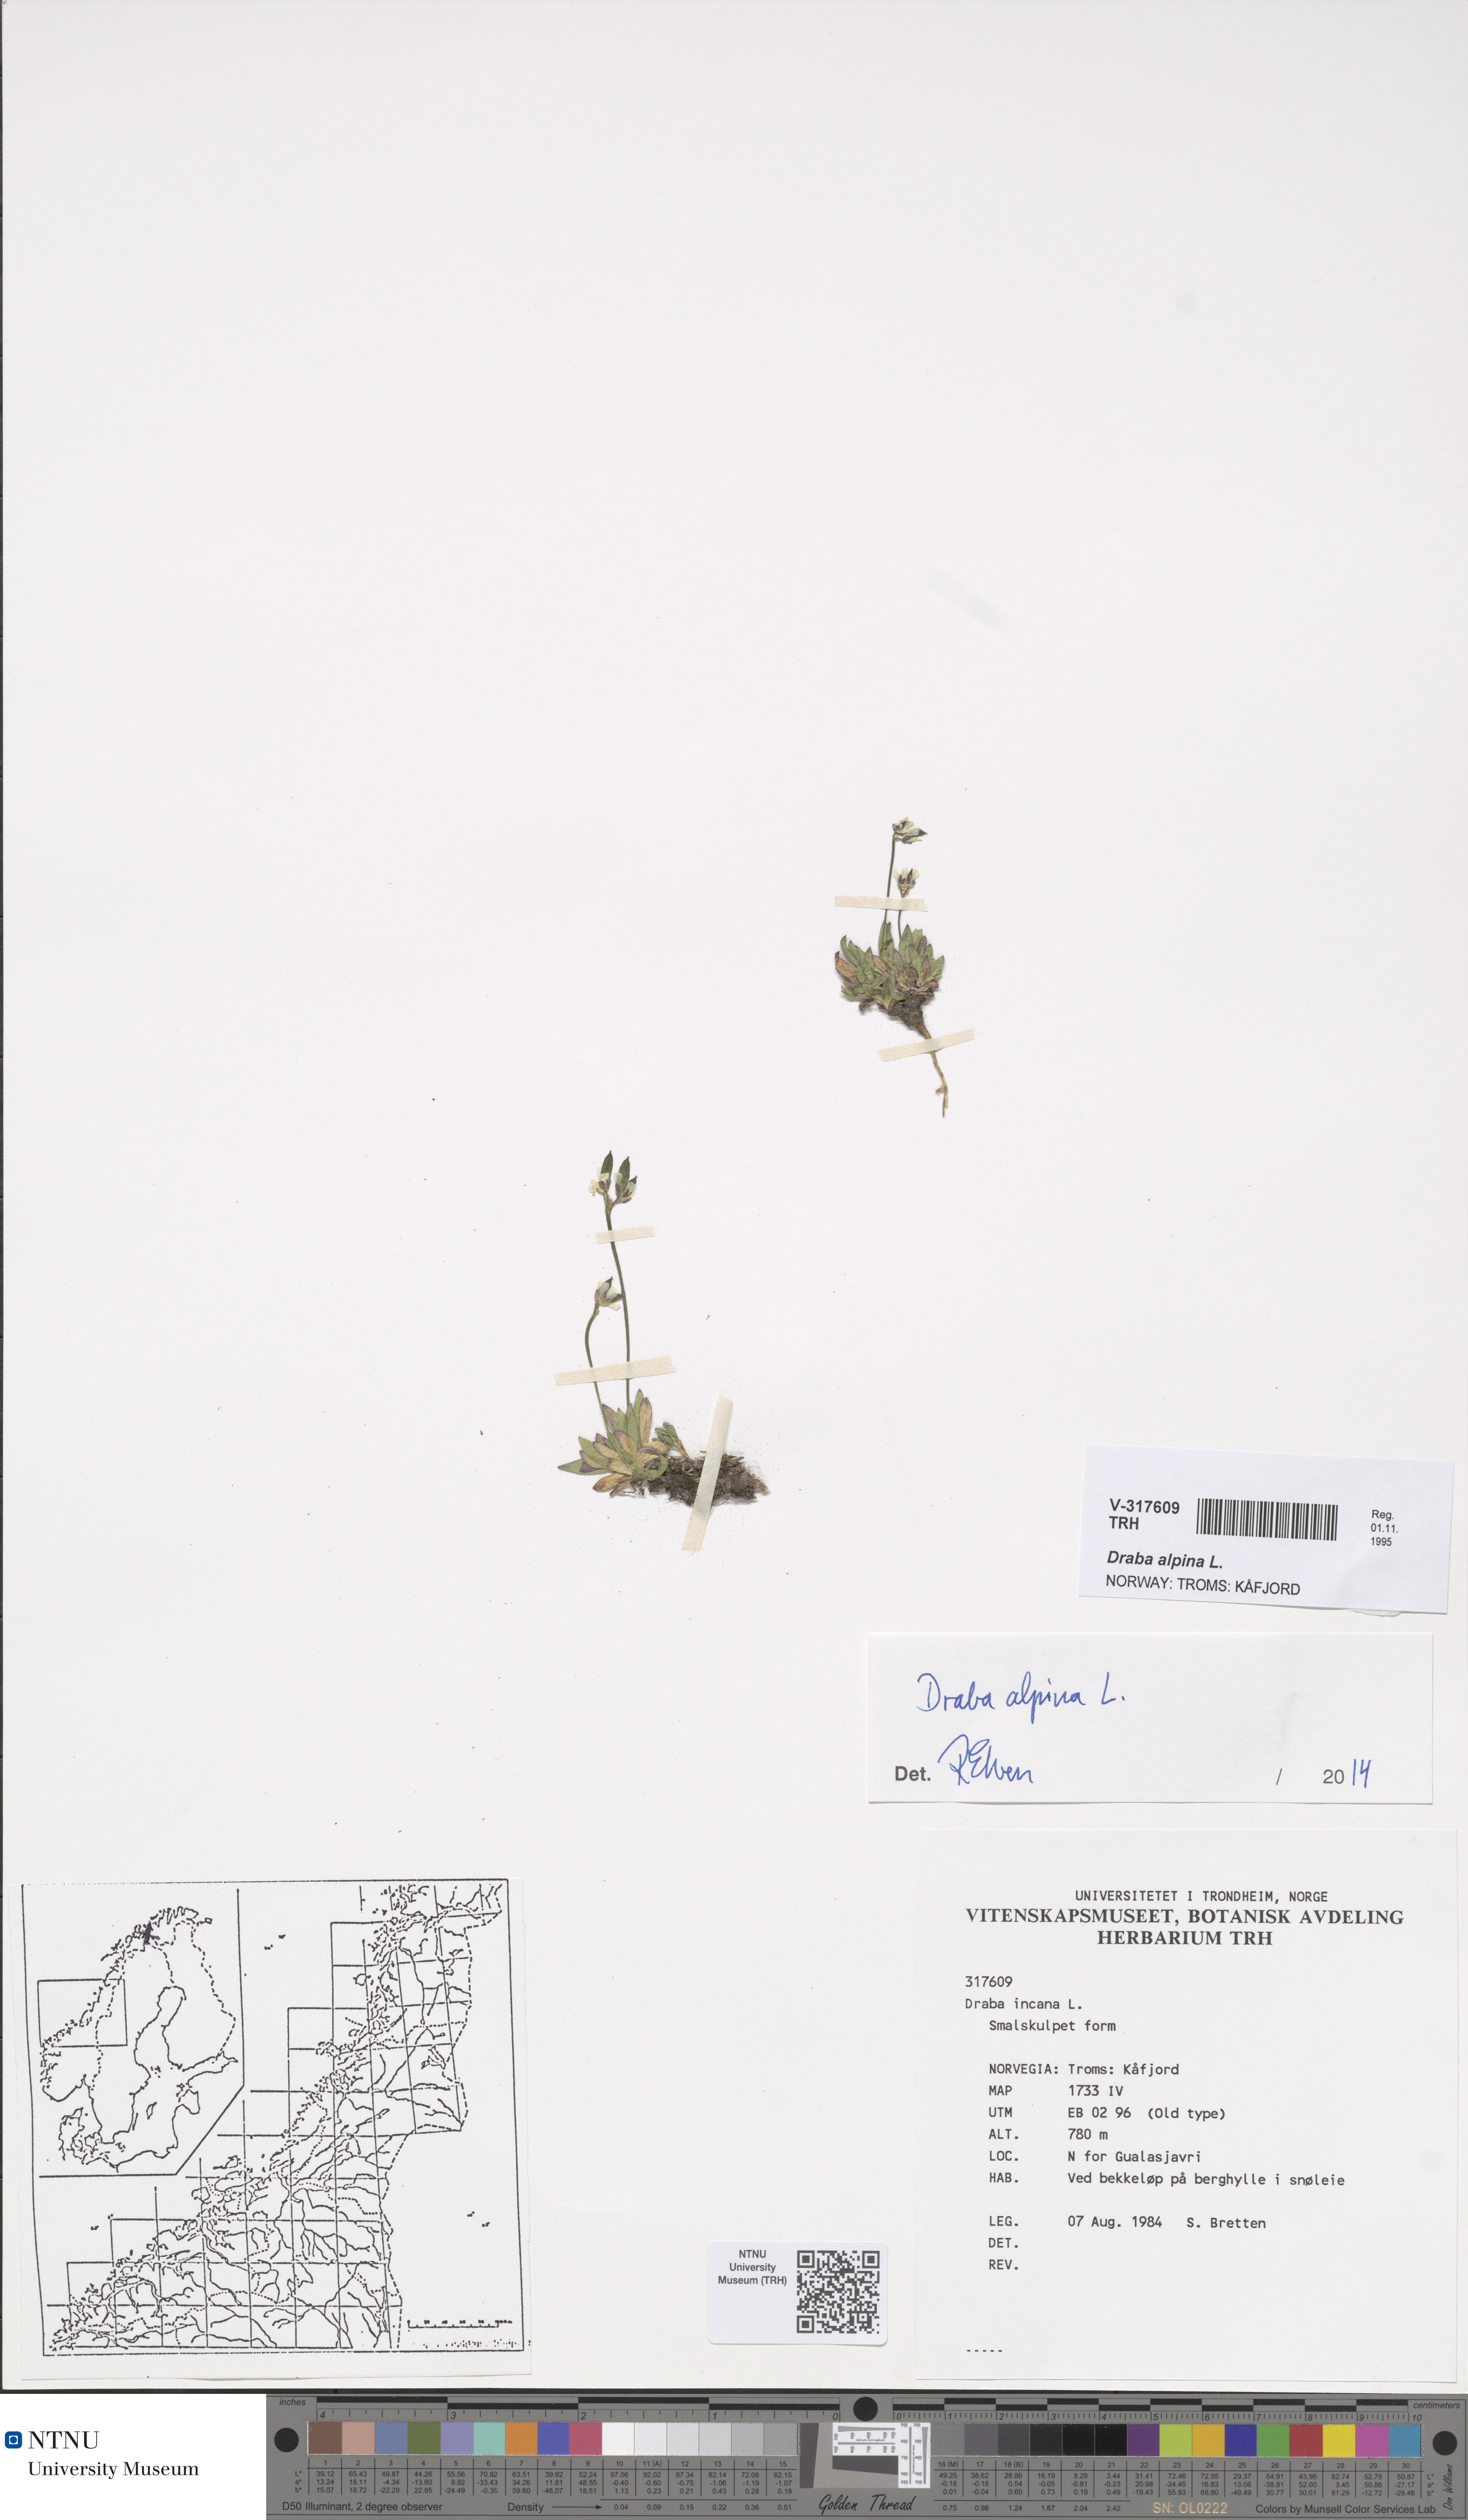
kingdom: Plantae
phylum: Tracheophyta
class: Magnoliopsida
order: Brassicales
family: Brassicaceae
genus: Draba
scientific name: Draba alpina
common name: Alpine draba
